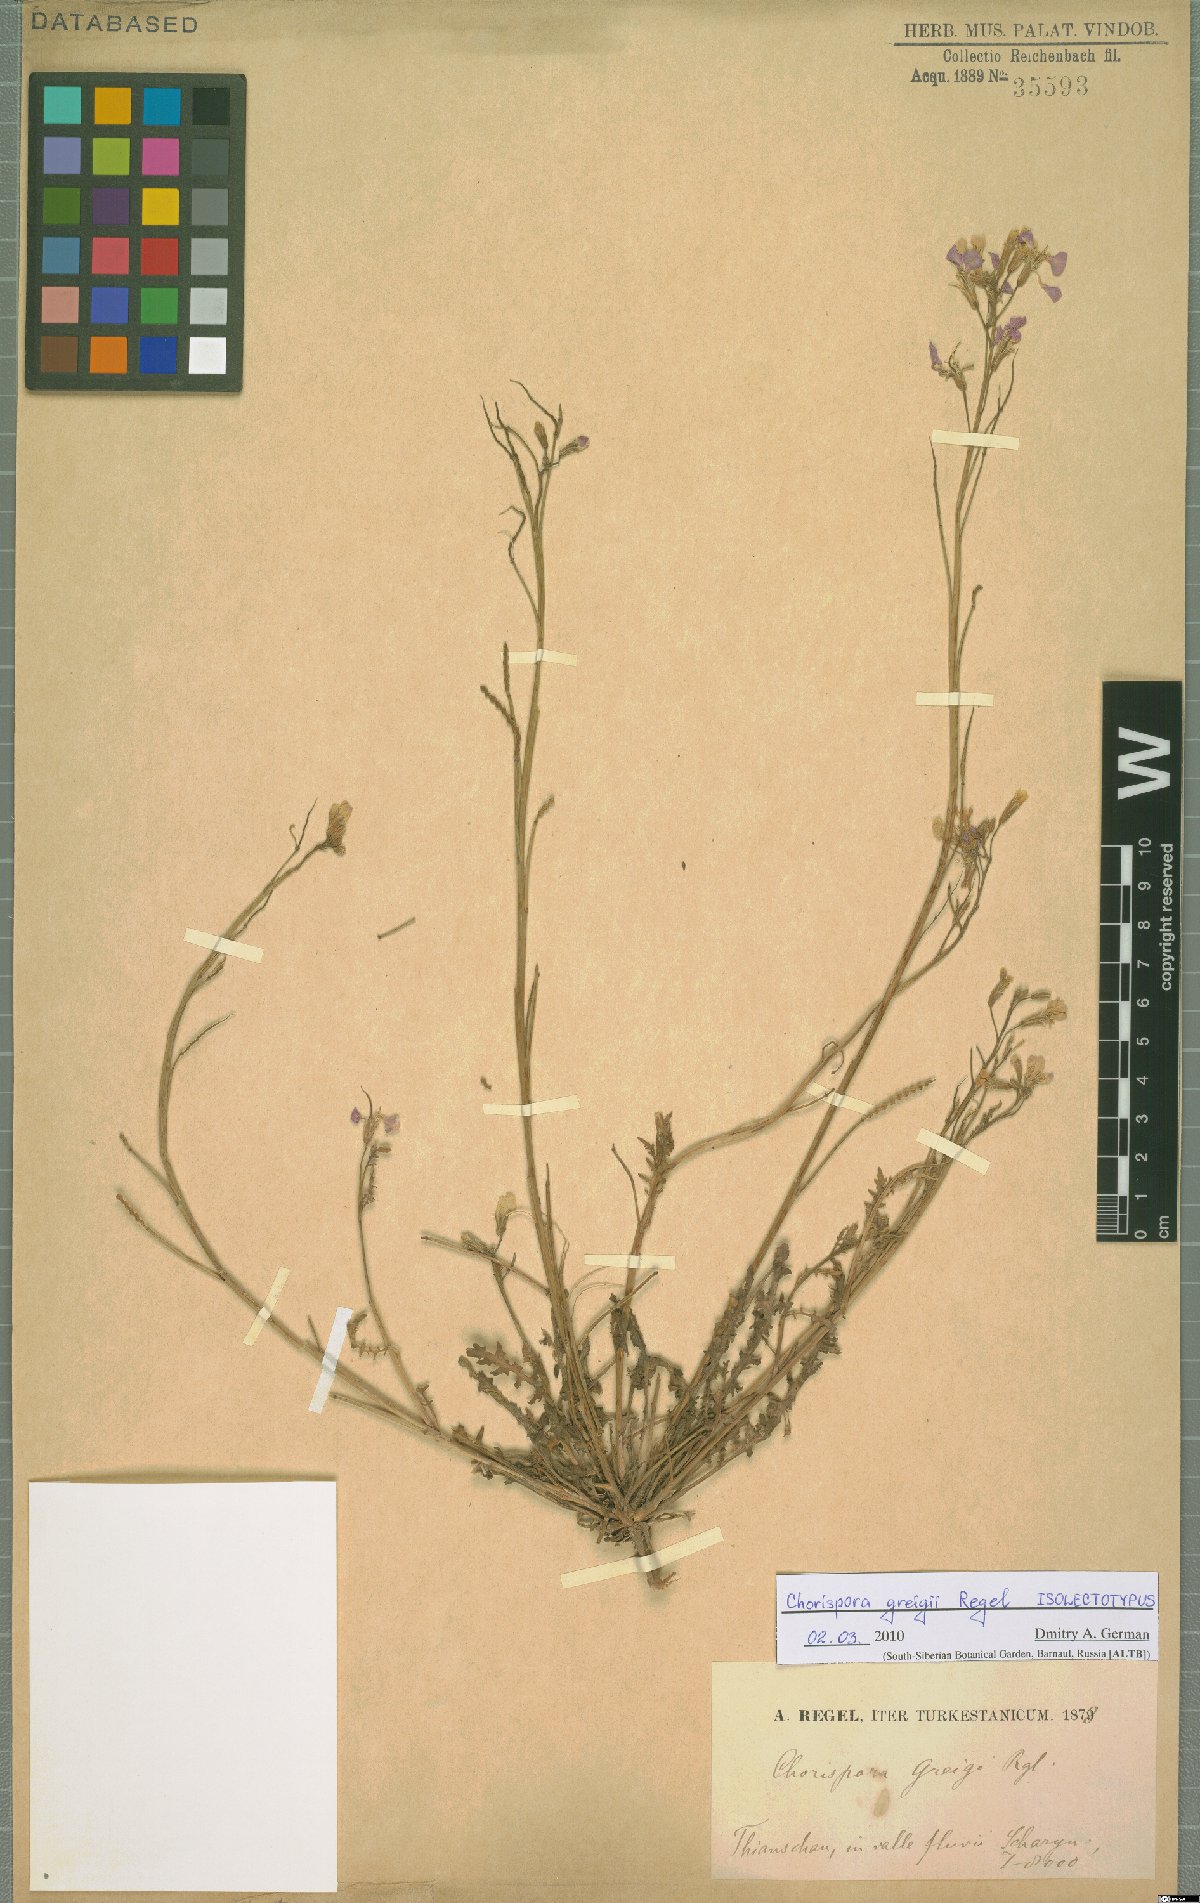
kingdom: Plantae
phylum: Tracheophyta
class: Magnoliopsida
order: Brassicales
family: Brassicaceae
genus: Chorispora
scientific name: Chorispora greigii
